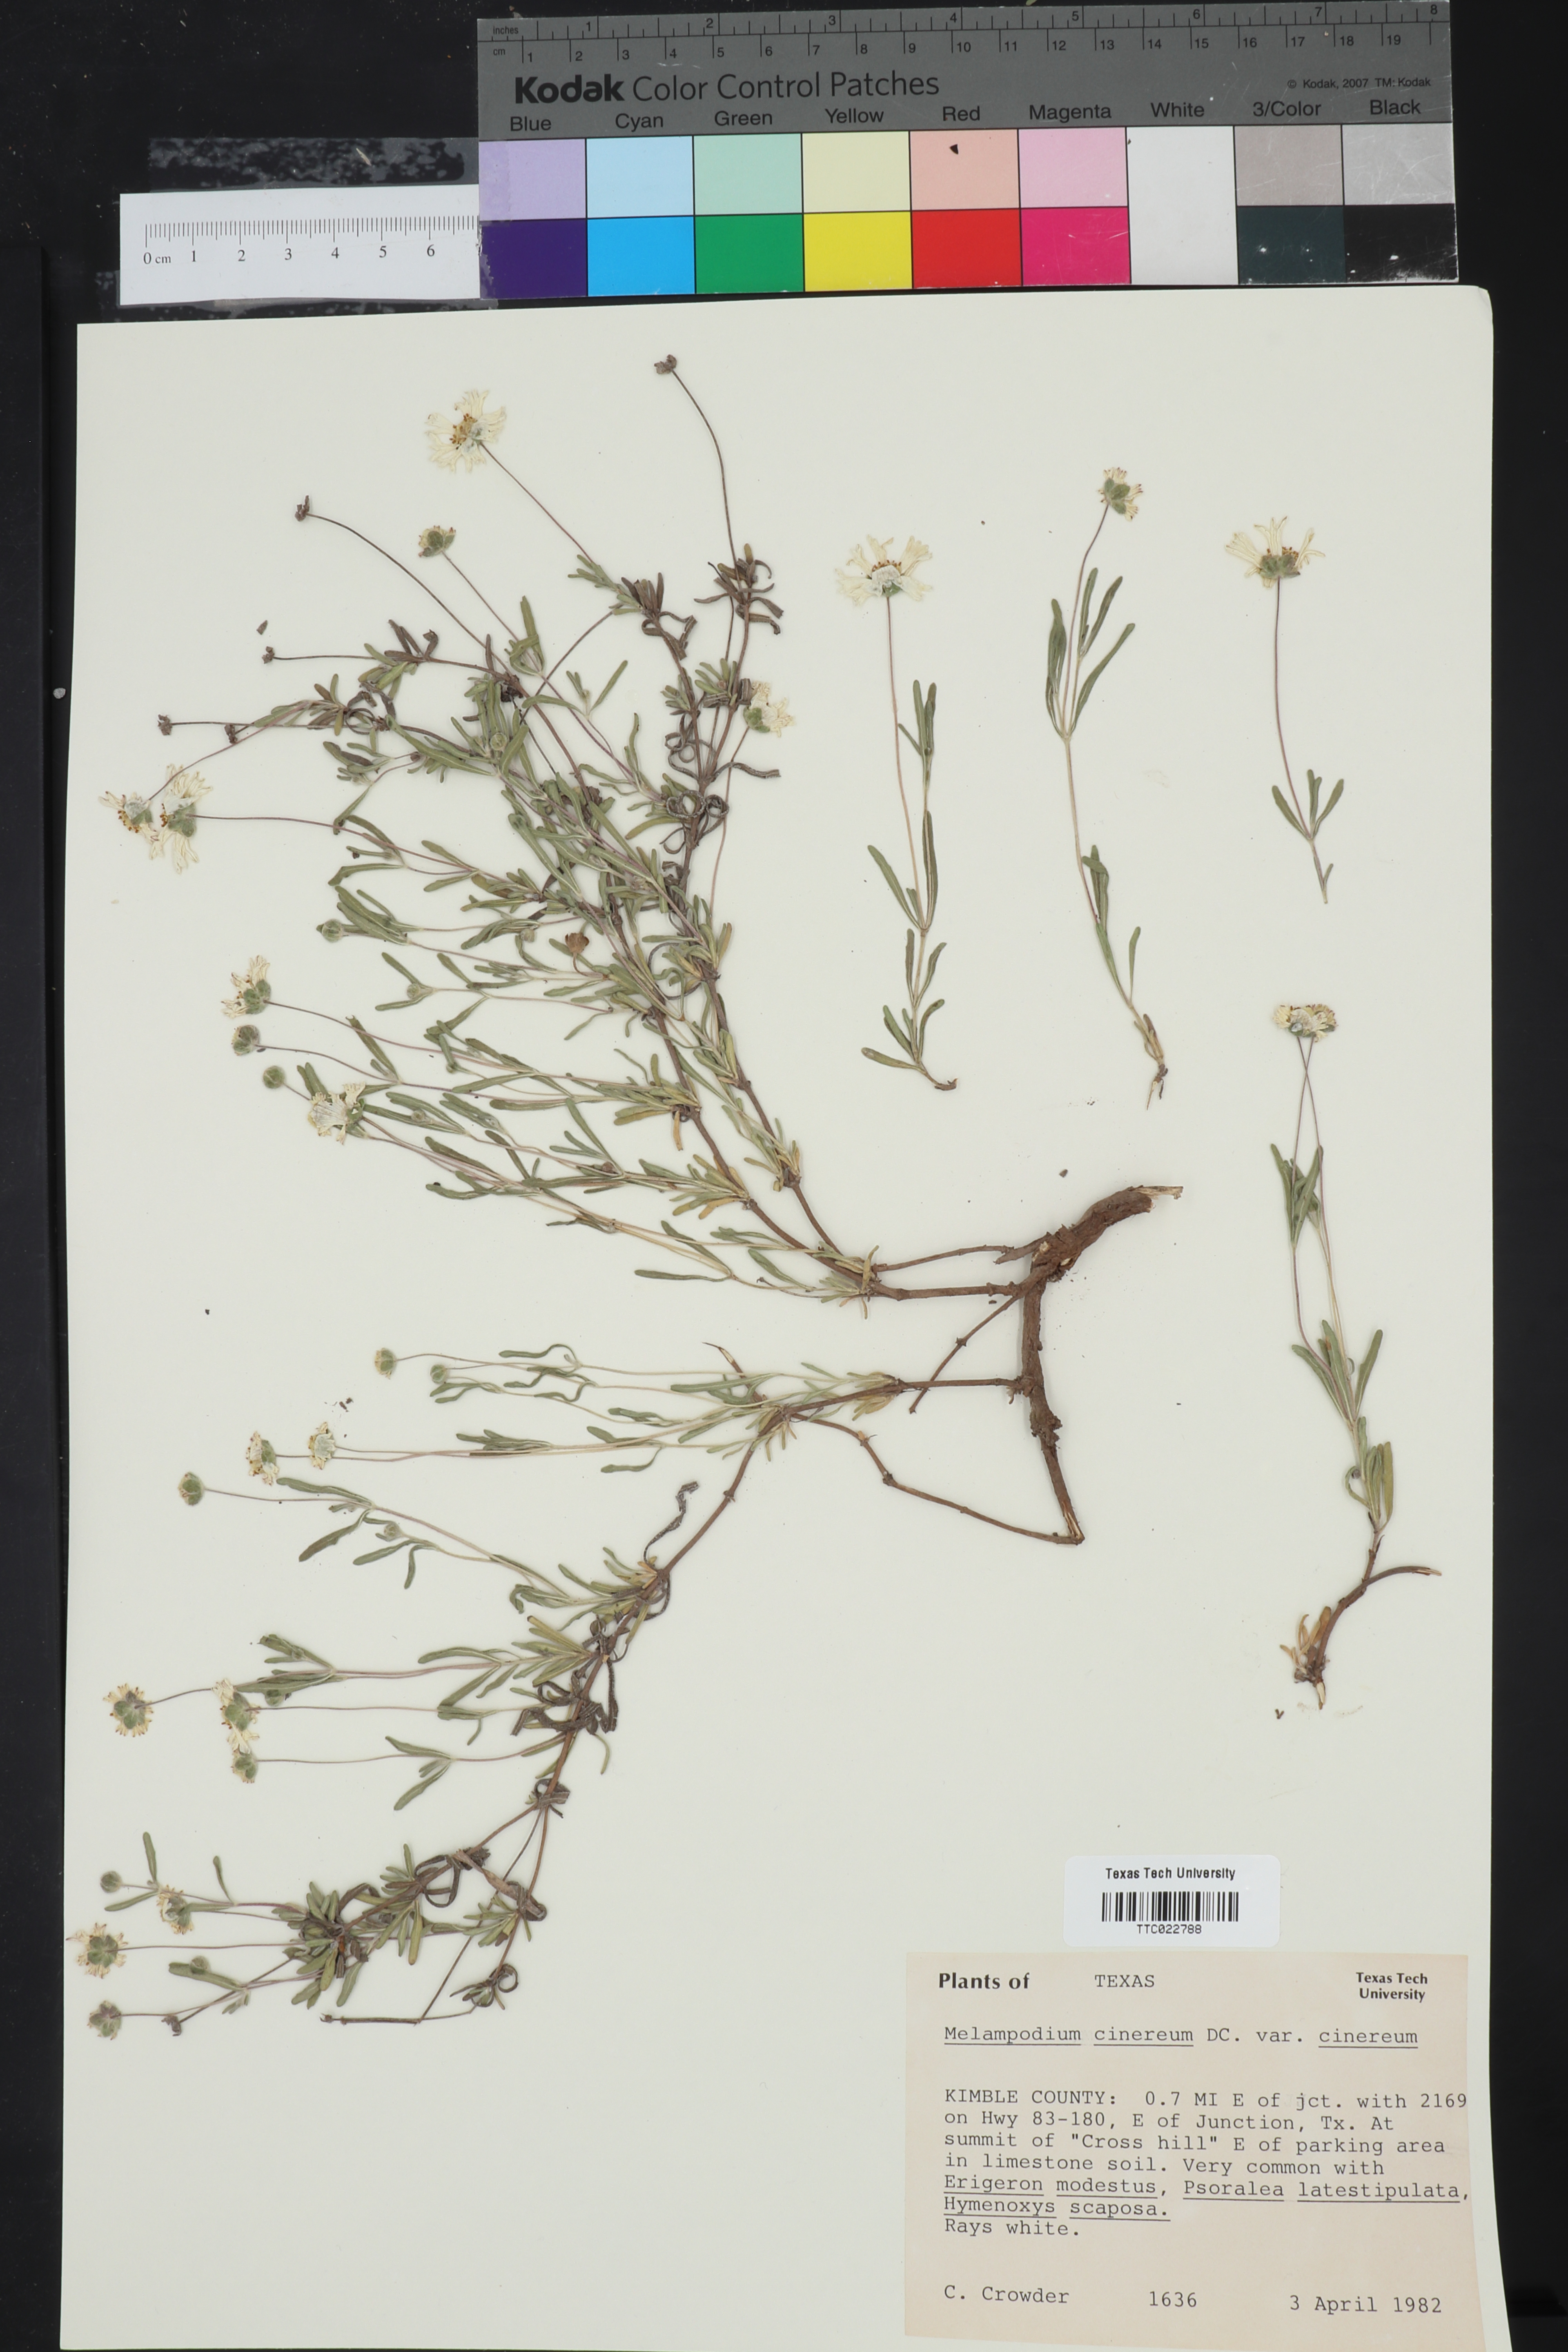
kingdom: Plantae
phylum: Tracheophyta
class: Magnoliopsida
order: Asterales
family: Asteraceae
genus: Melampodium
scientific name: Melampodium cinereum
